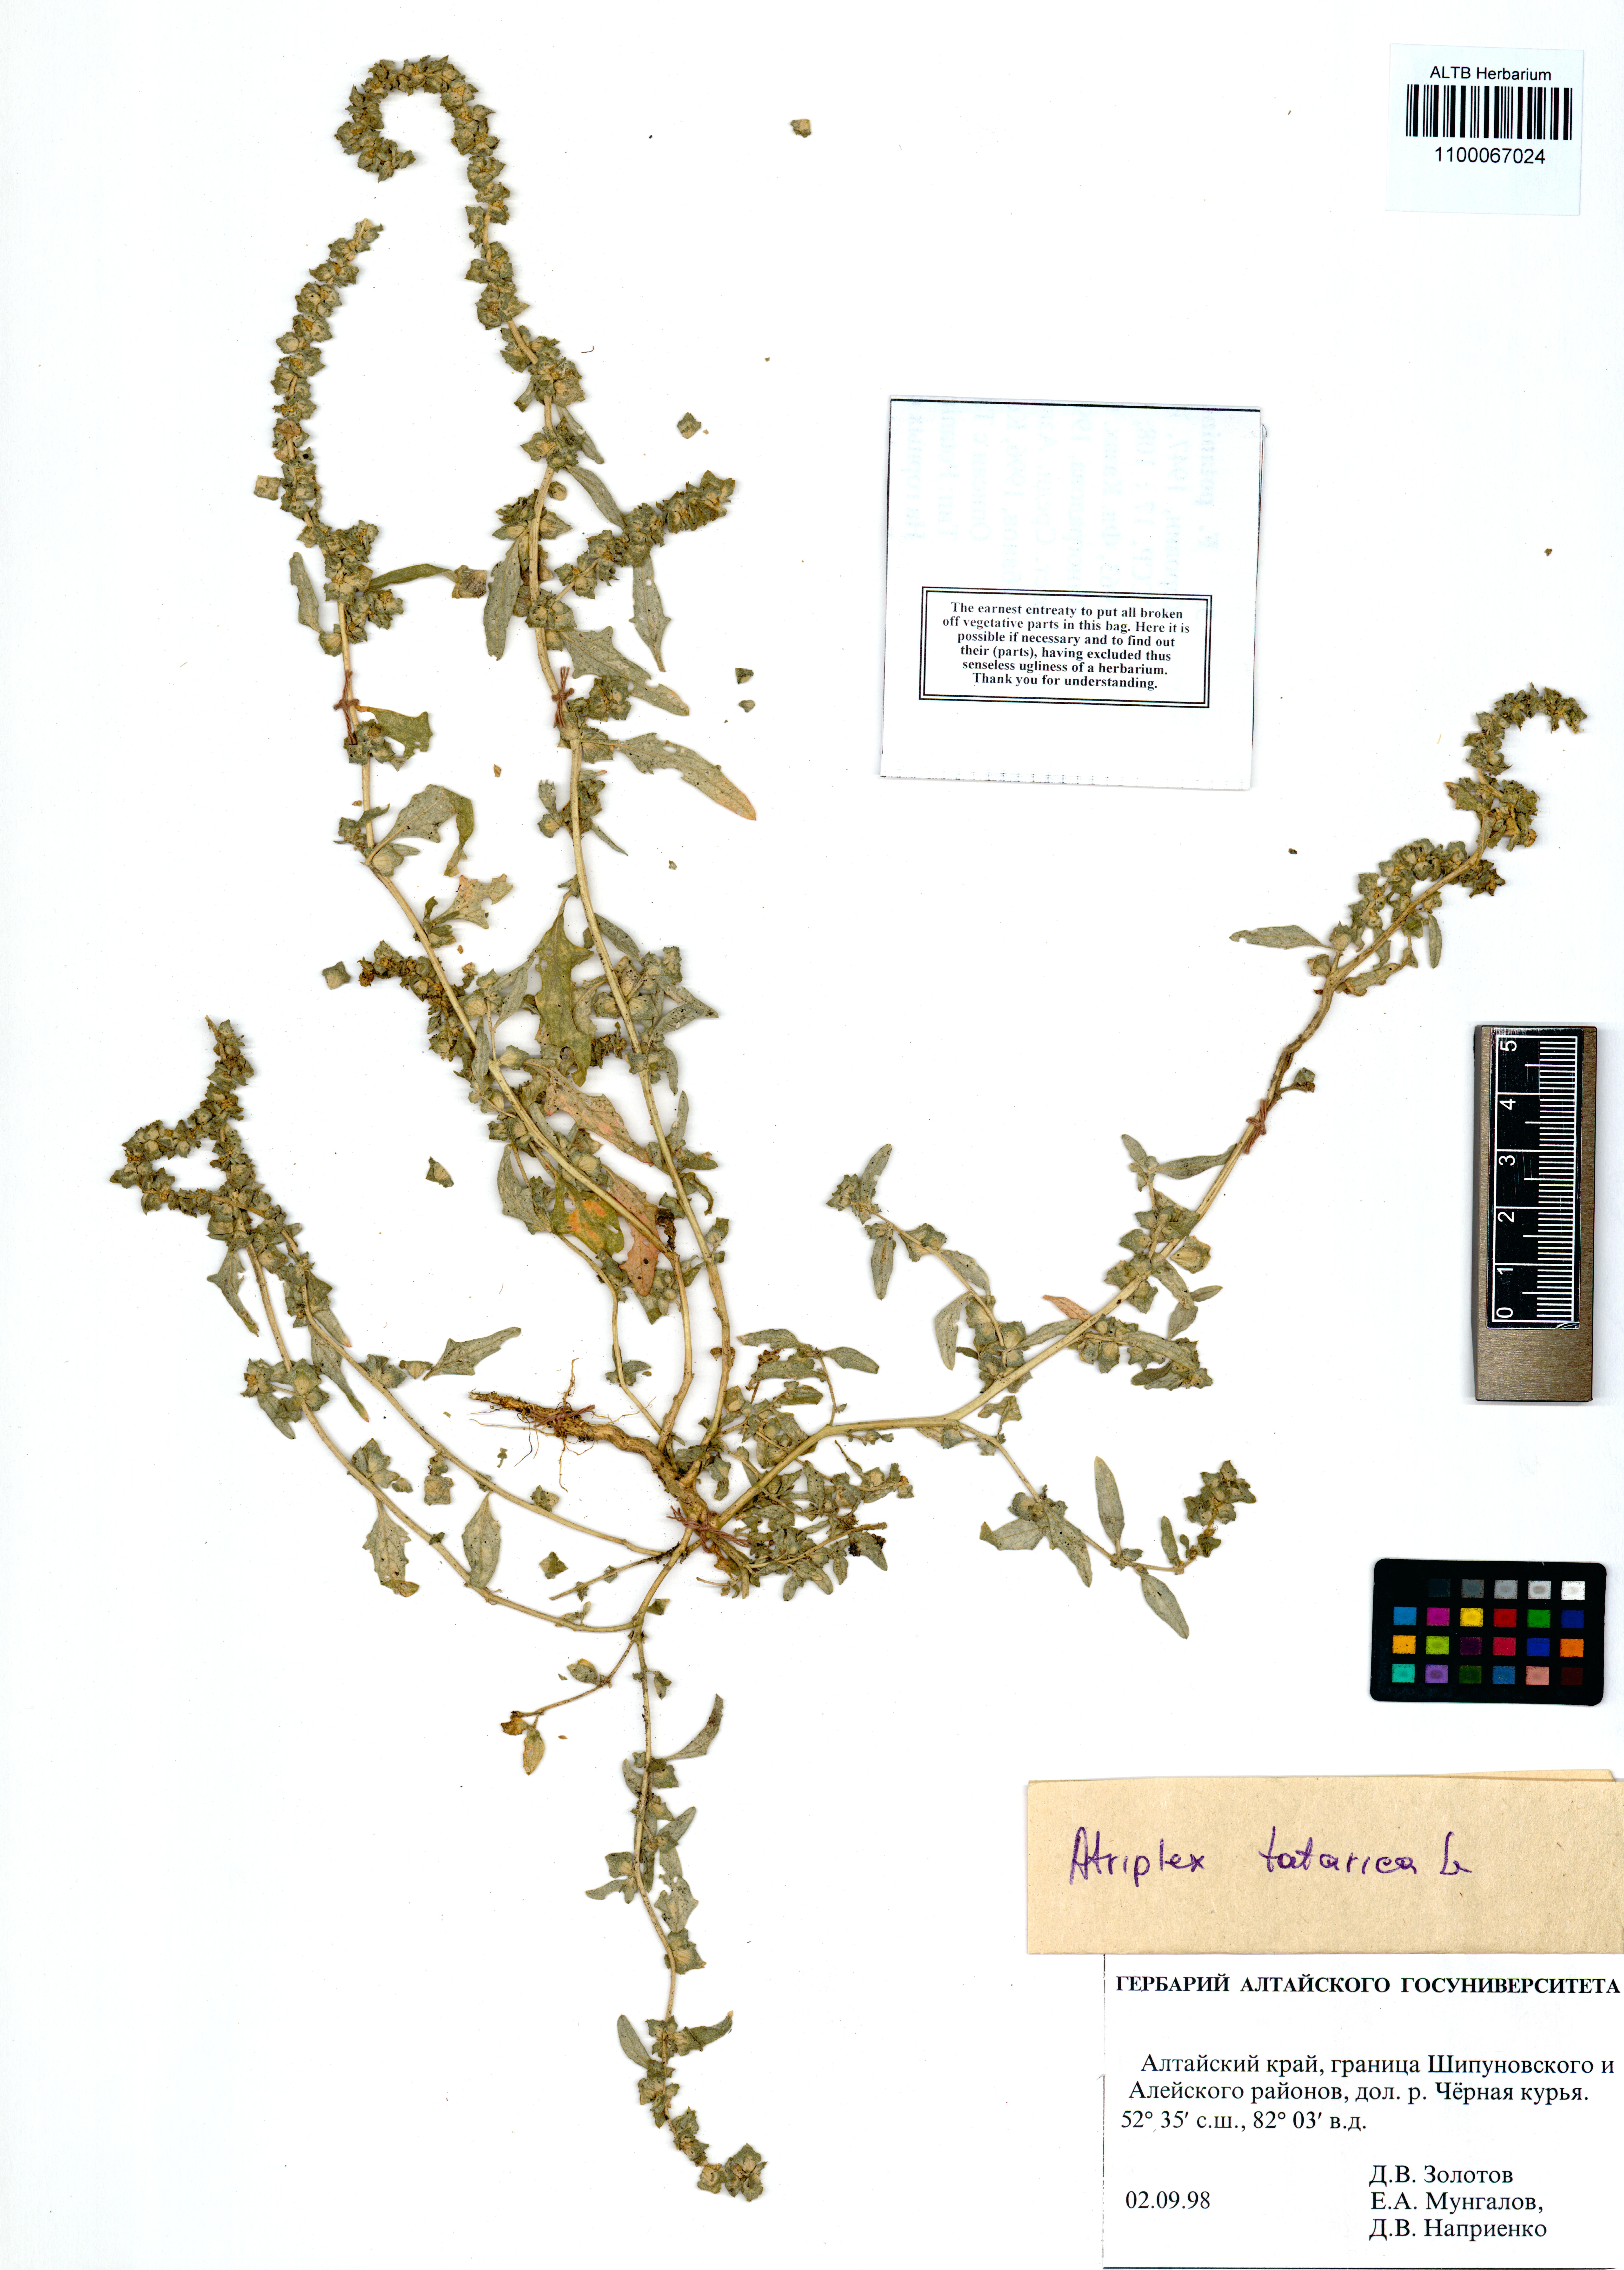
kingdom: Plantae
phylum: Tracheophyta
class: Magnoliopsida
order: Caryophyllales
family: Amaranthaceae
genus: Atriplex
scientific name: Atriplex tatarica
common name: Tatarian orache
